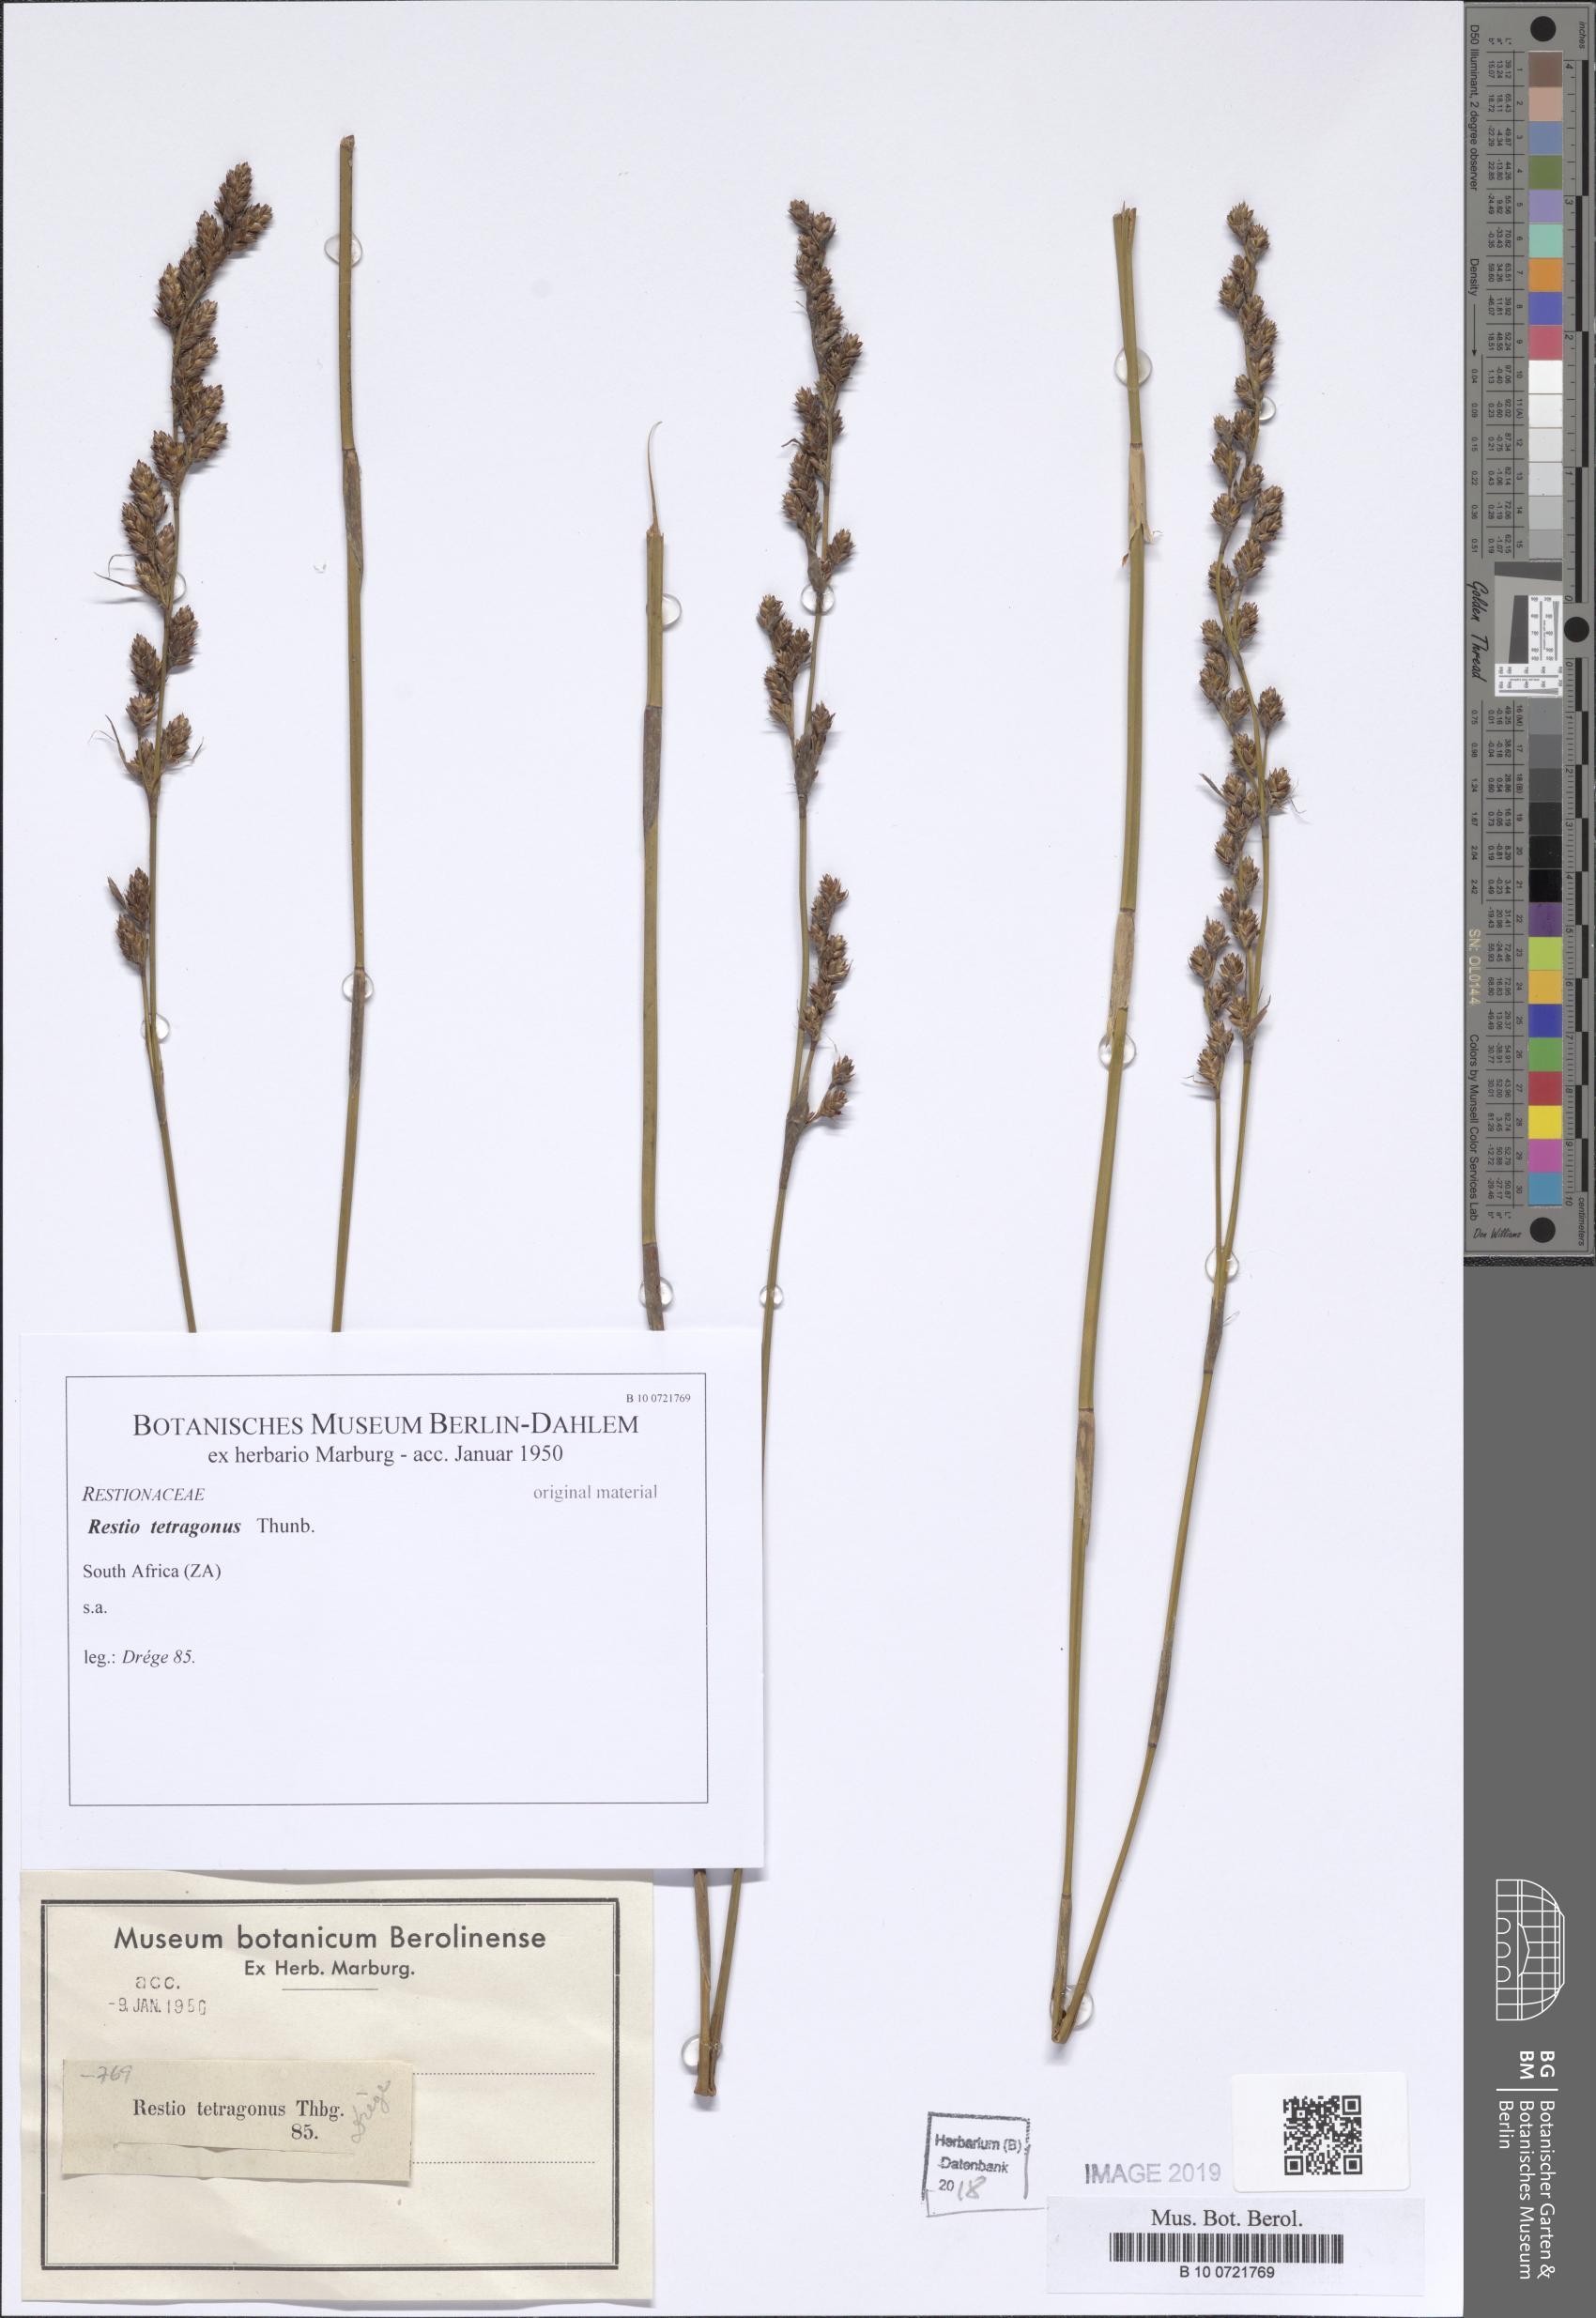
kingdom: Plantae
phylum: Tracheophyta
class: Liliopsida
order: Poales
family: Restionaceae
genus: Restio
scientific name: Restio tetragonus
